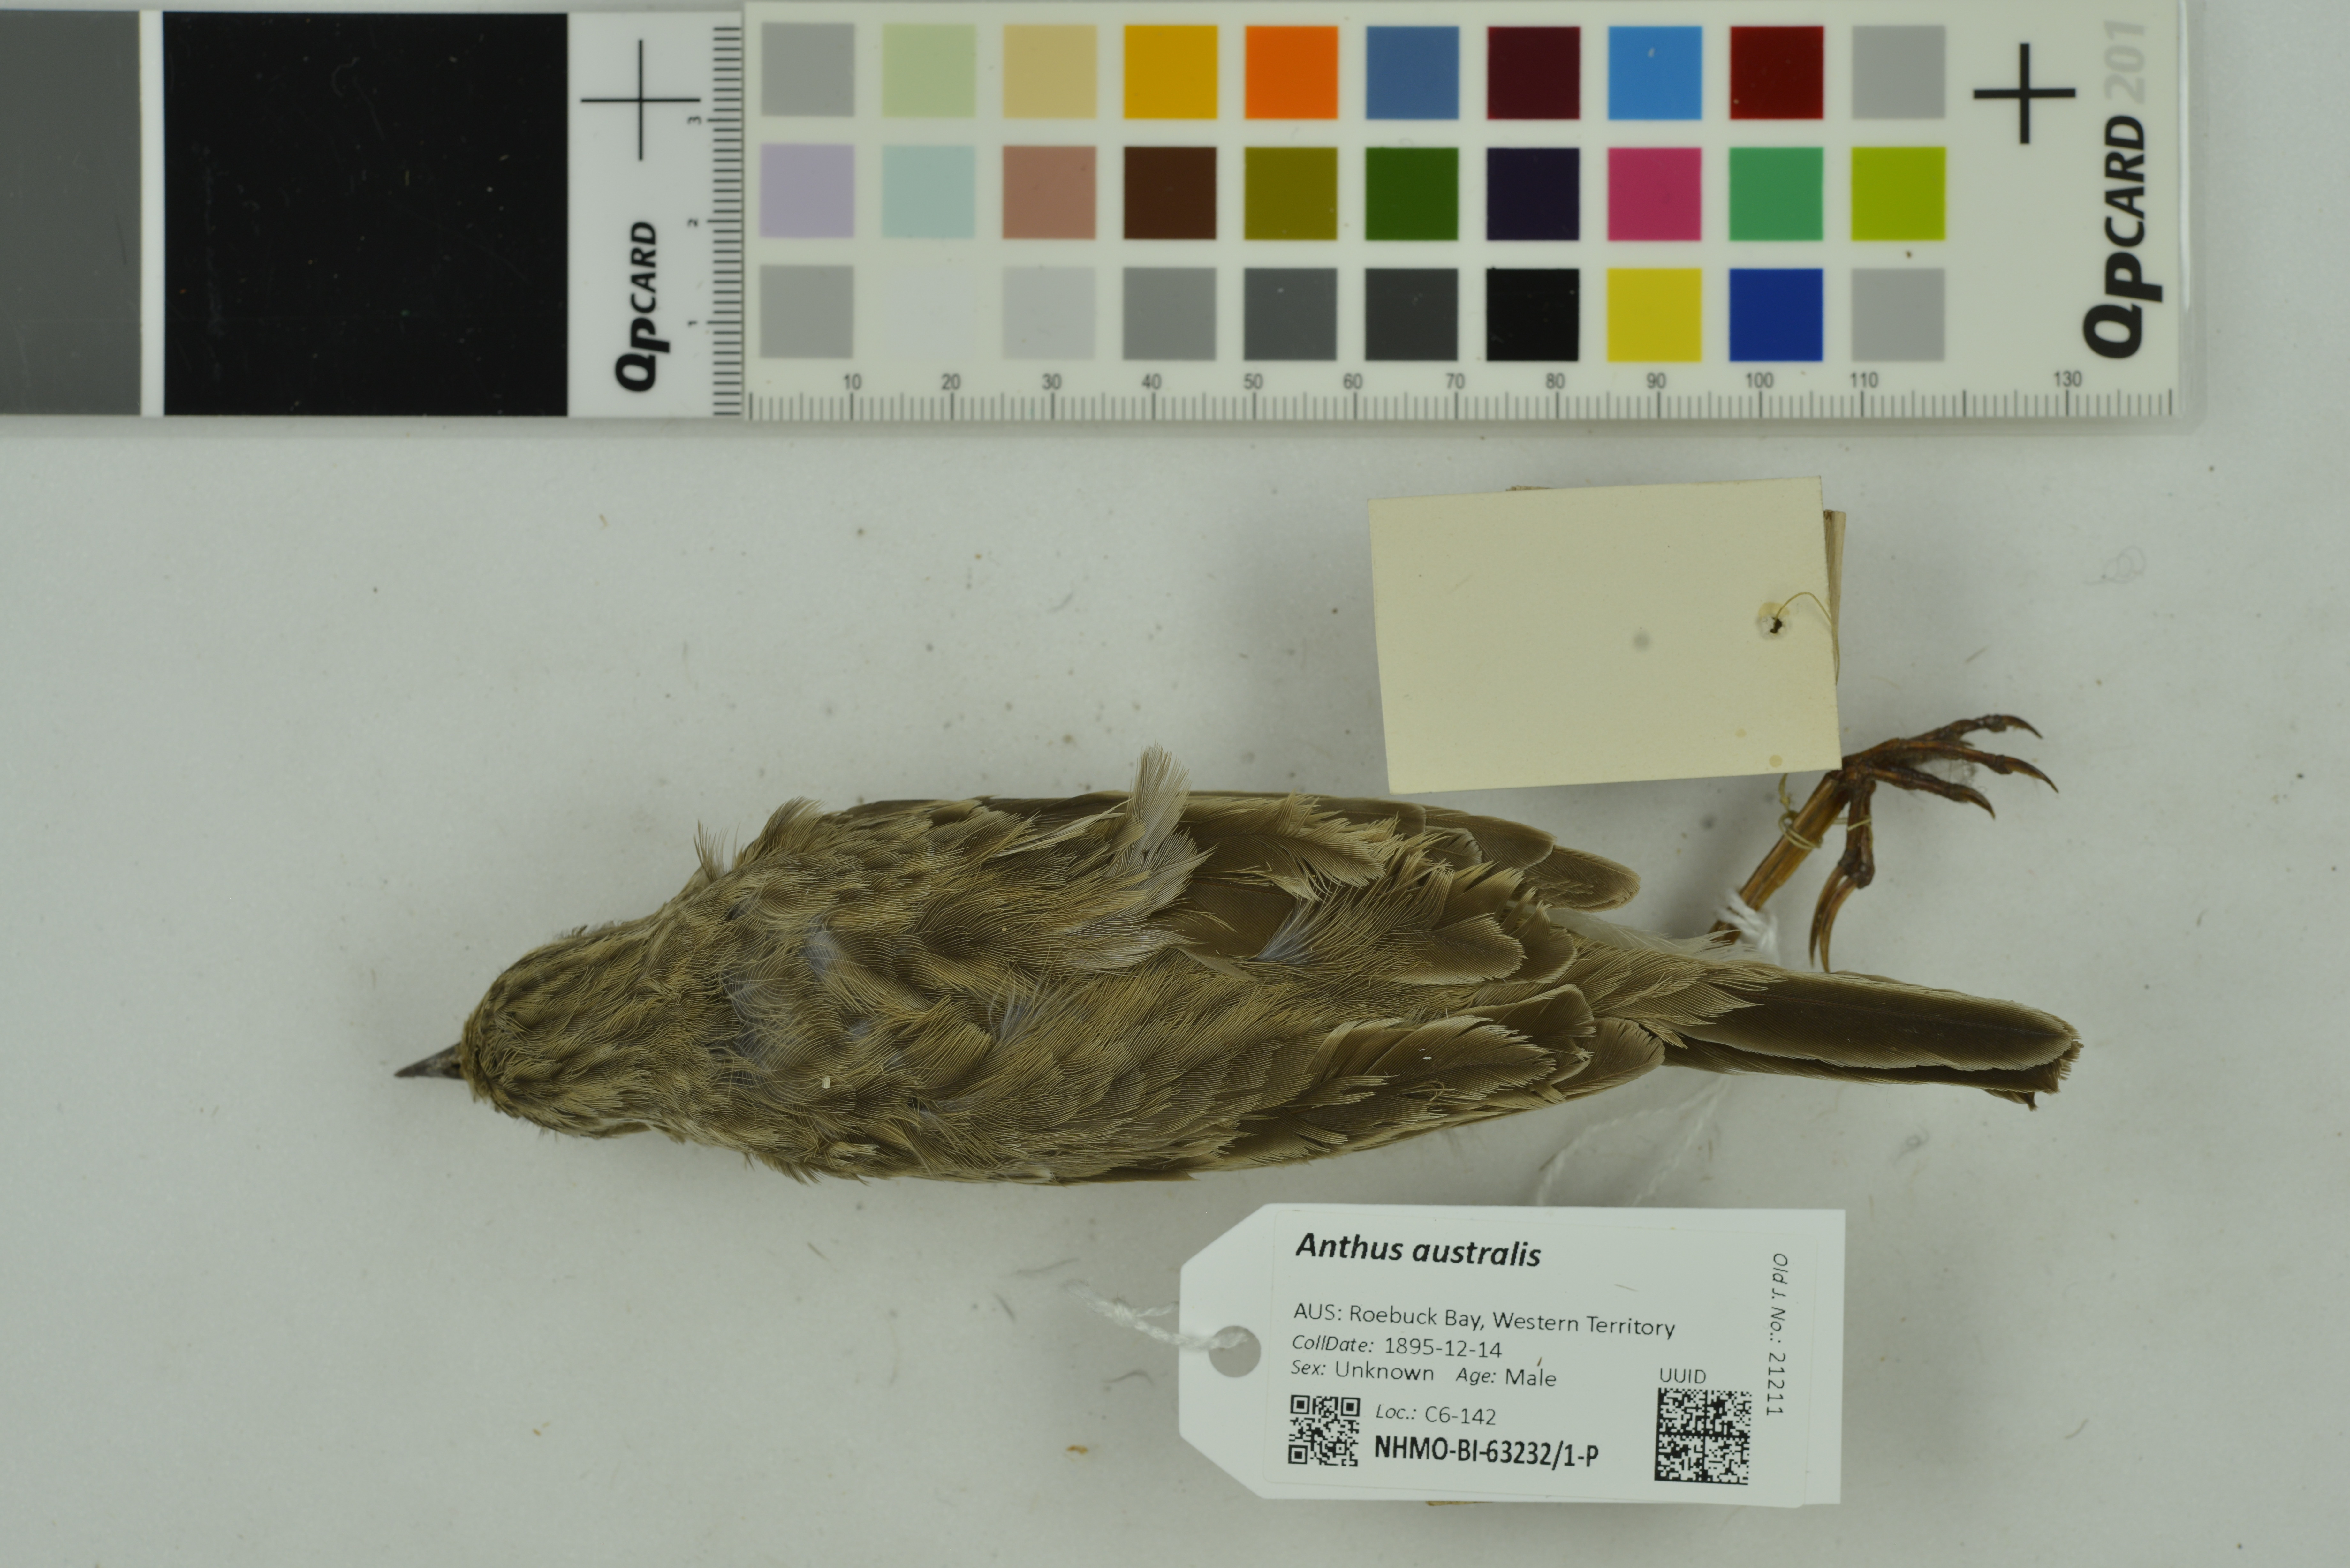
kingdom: Animalia
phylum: Chordata
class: Aves
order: Passeriformes
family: Motacillidae
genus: Anthus
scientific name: Anthus australis
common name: Australian pipit
